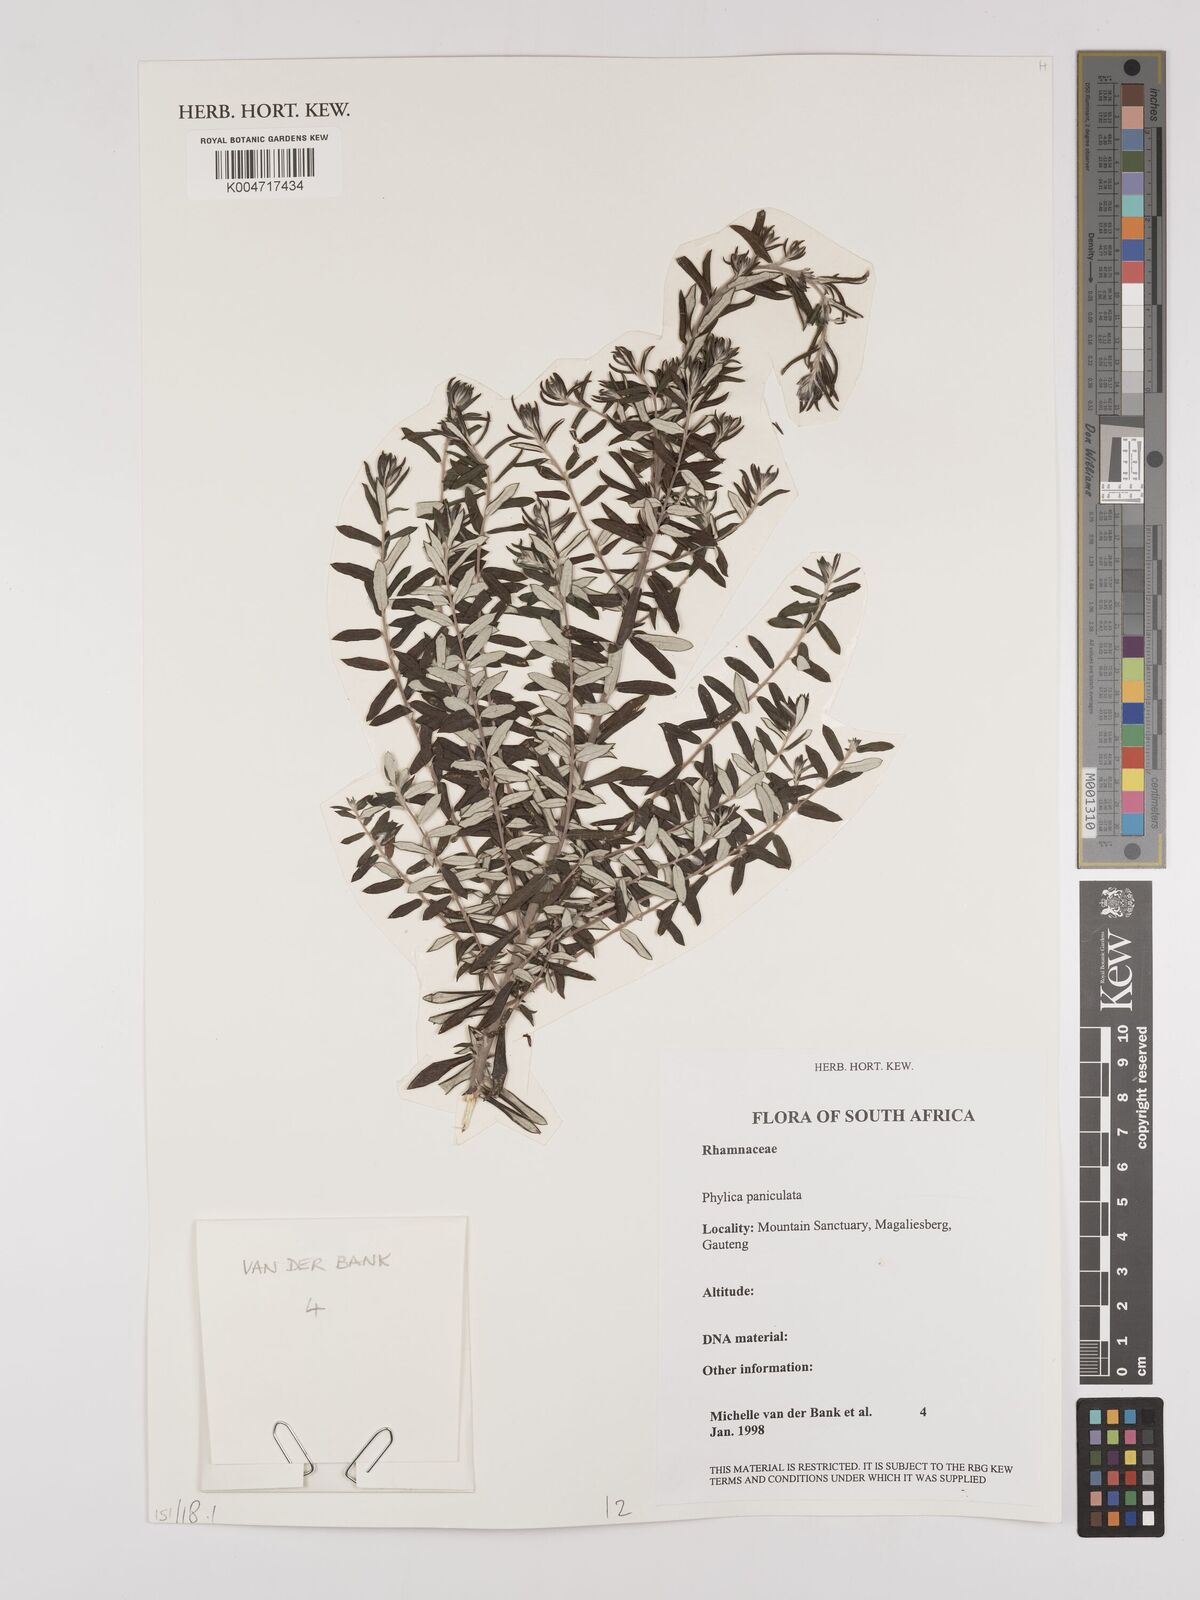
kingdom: Plantae
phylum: Tracheophyta
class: Magnoliopsida
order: Rosales
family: Rhamnaceae
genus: Phylica
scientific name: Phylica paniculata
